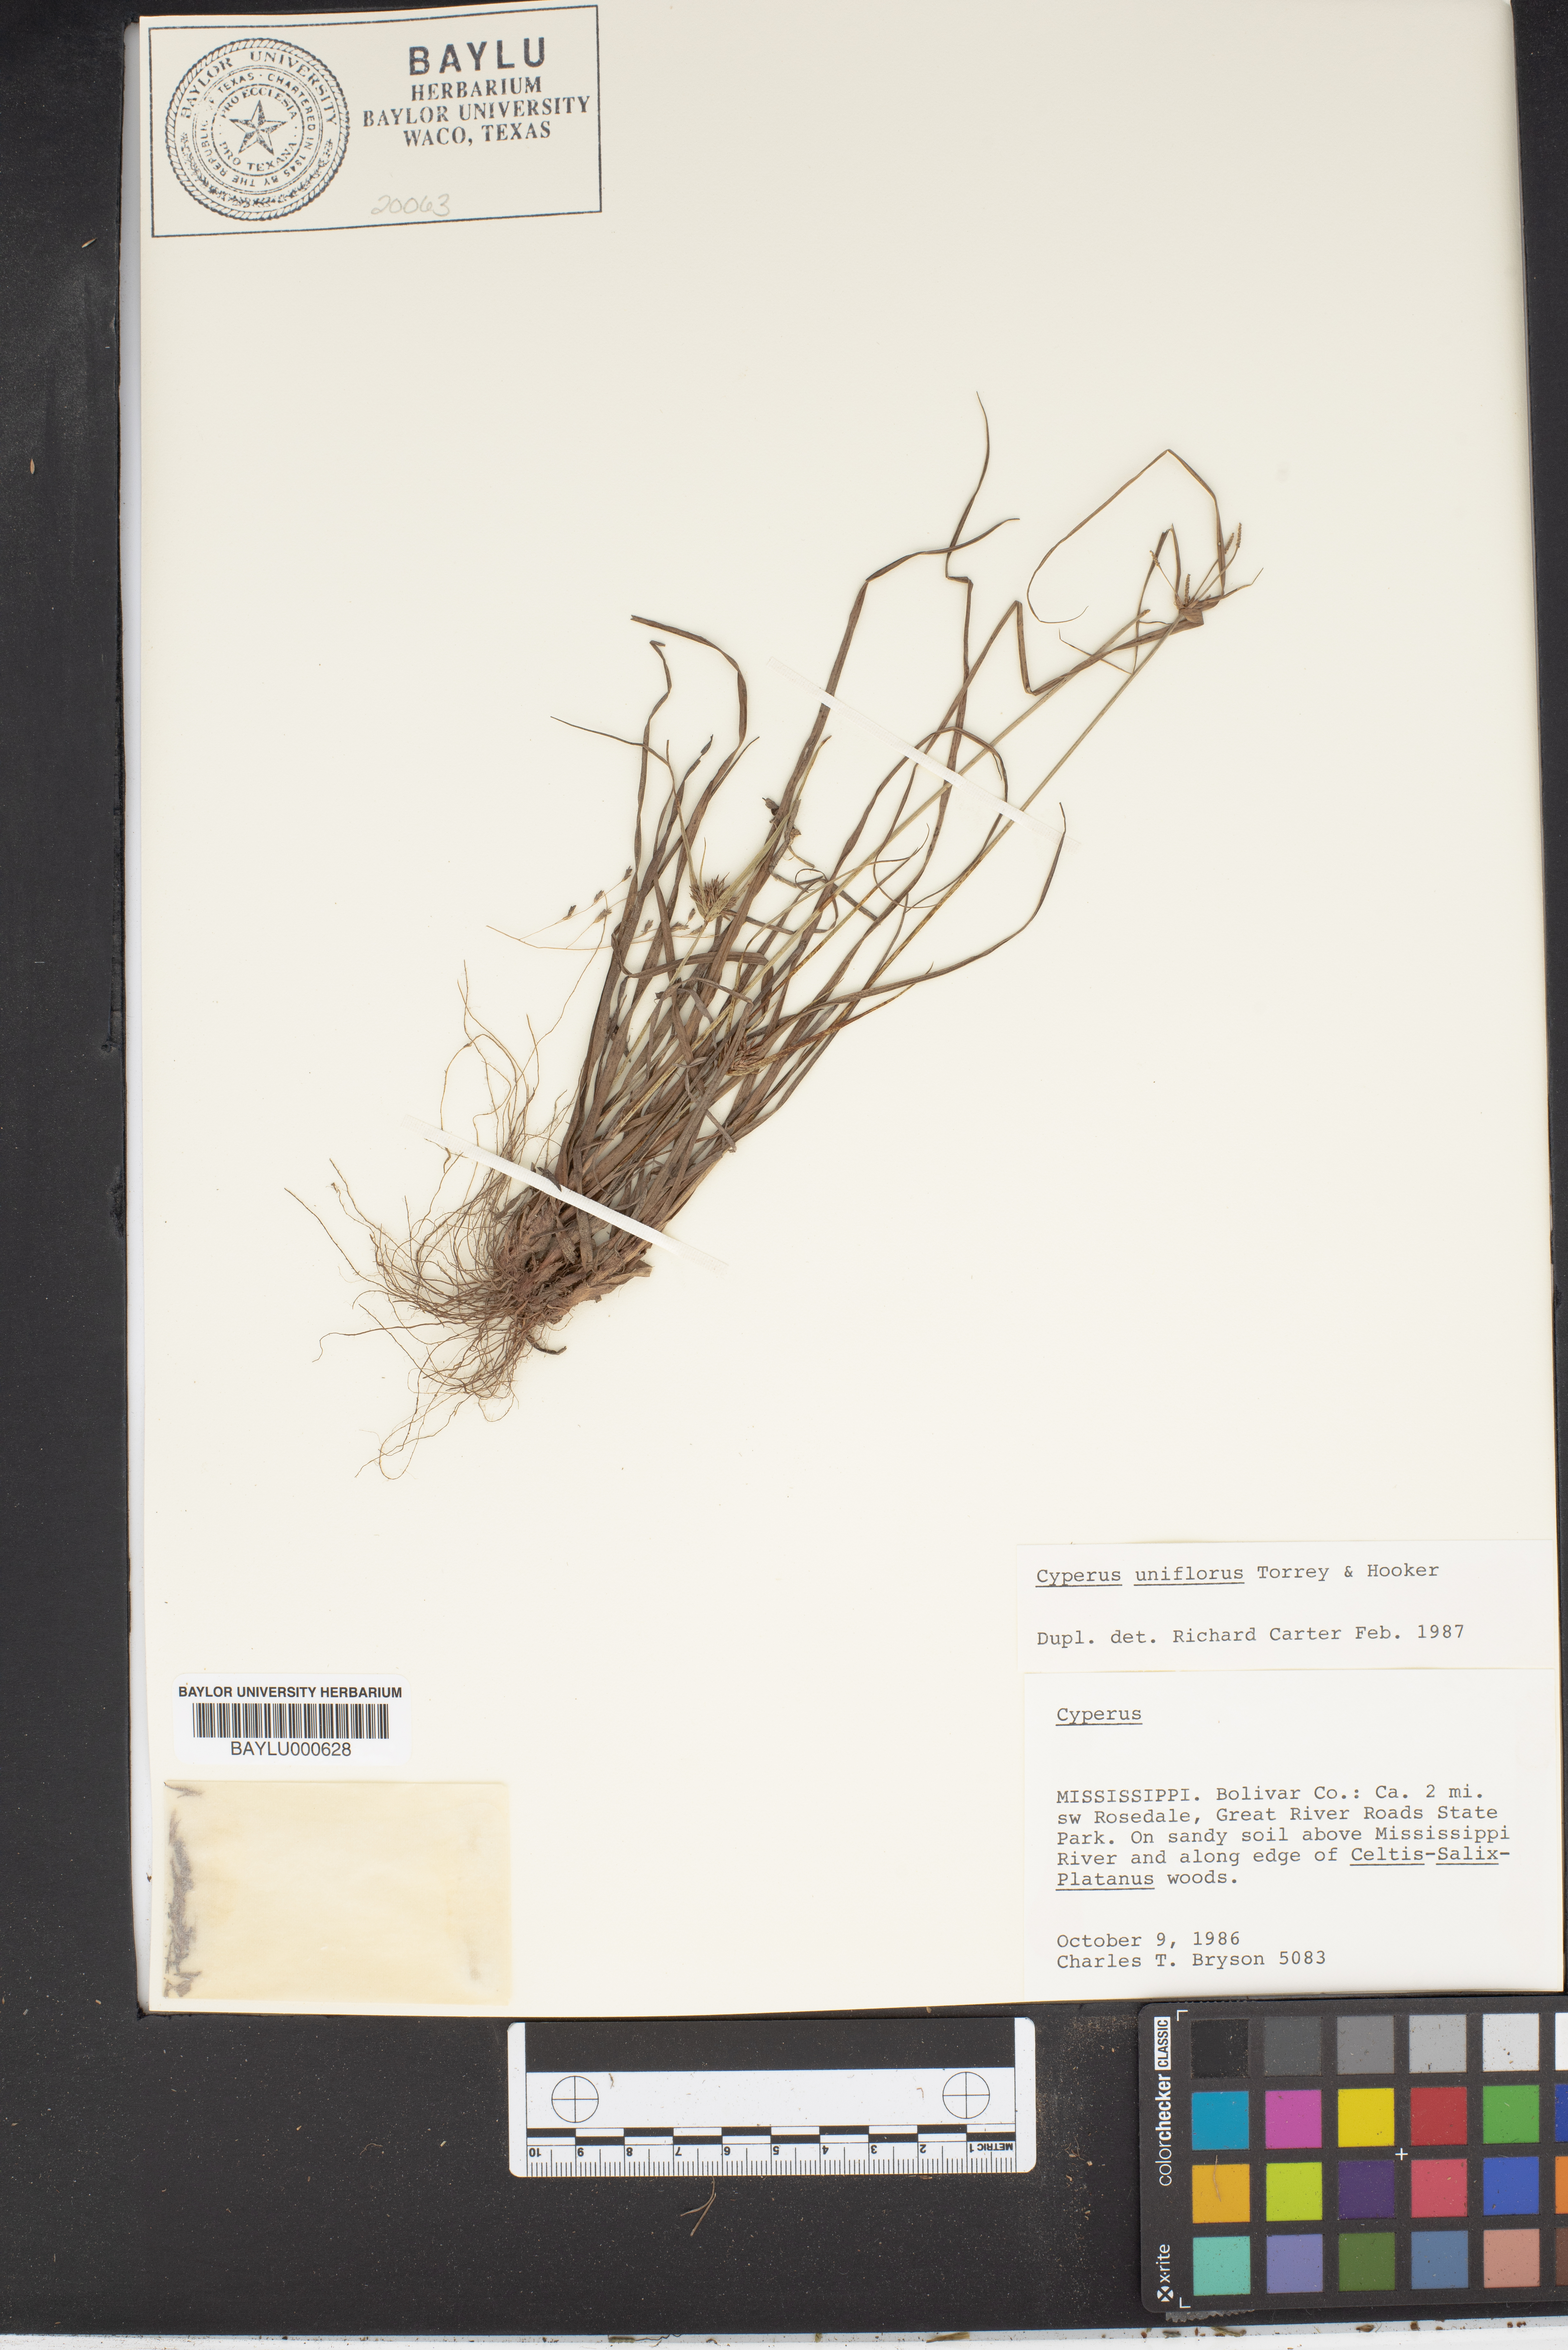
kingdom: Plantae
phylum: Tracheophyta
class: Liliopsida
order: Poales
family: Cyperaceae
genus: Cyperus
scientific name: Cyperus retroflexus
